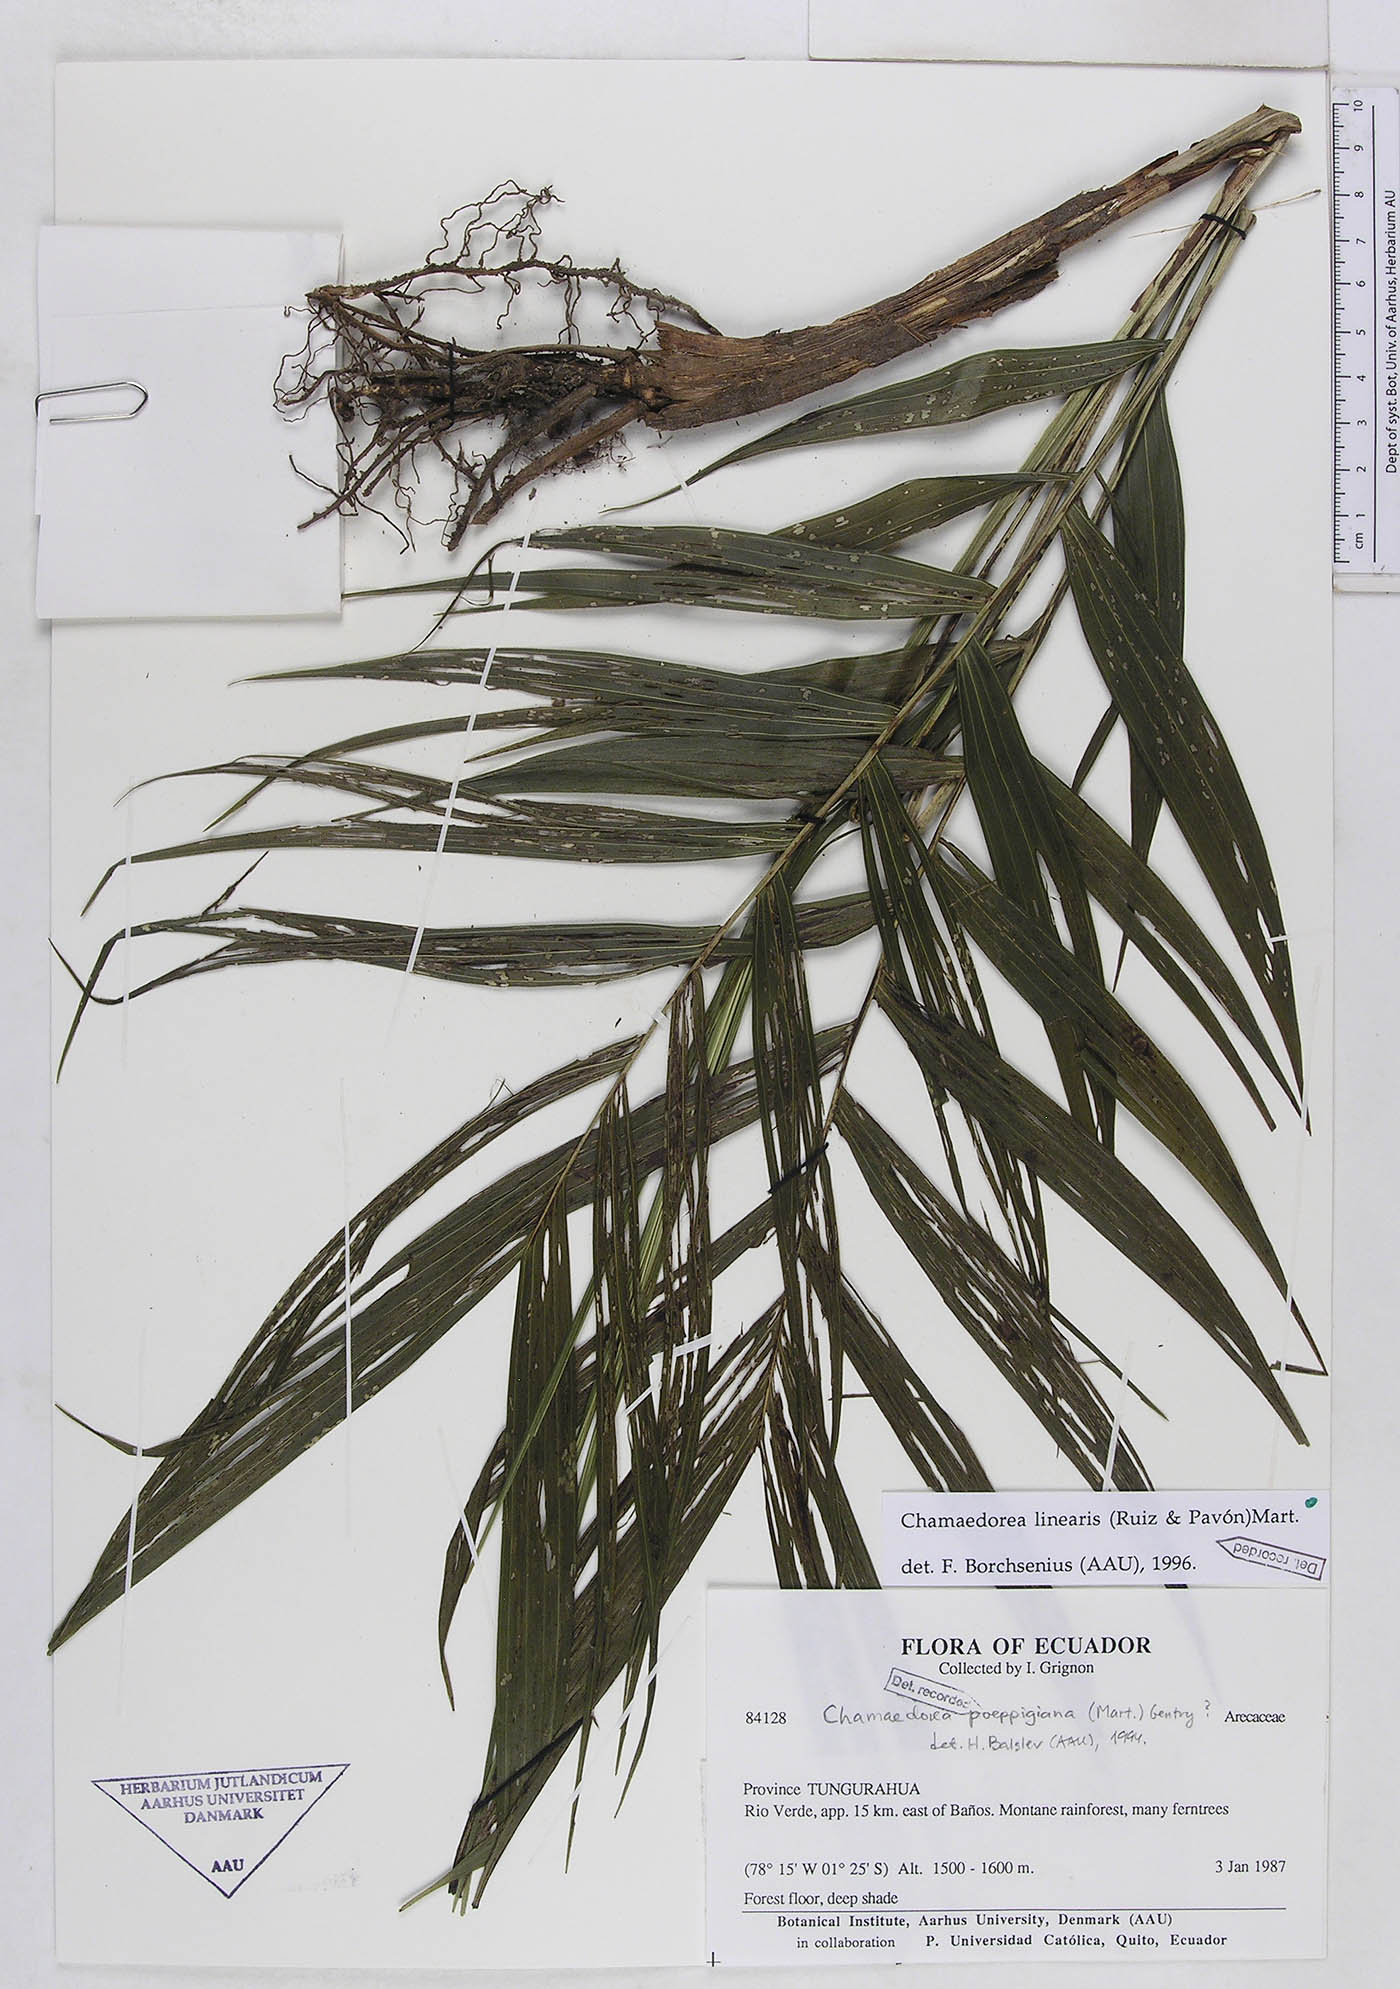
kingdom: Plantae
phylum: Tracheophyta
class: Liliopsida
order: Arecales
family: Arecaceae
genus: Chamaedorea
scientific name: Chamaedorea linearis
